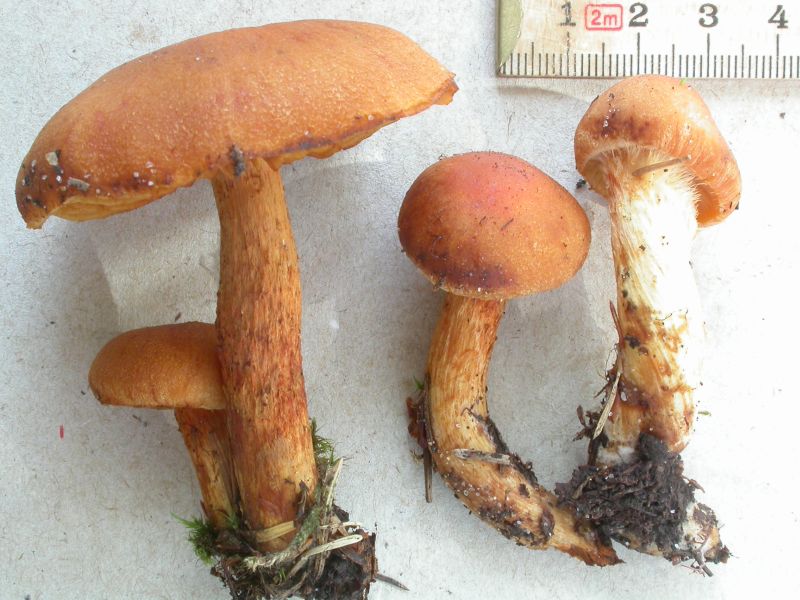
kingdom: Fungi
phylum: Basidiomycota
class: Agaricomycetes
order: Agaricales
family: Cortinariaceae
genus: Aureonarius
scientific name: Aureonarius limonius
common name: orangegul slørhat
